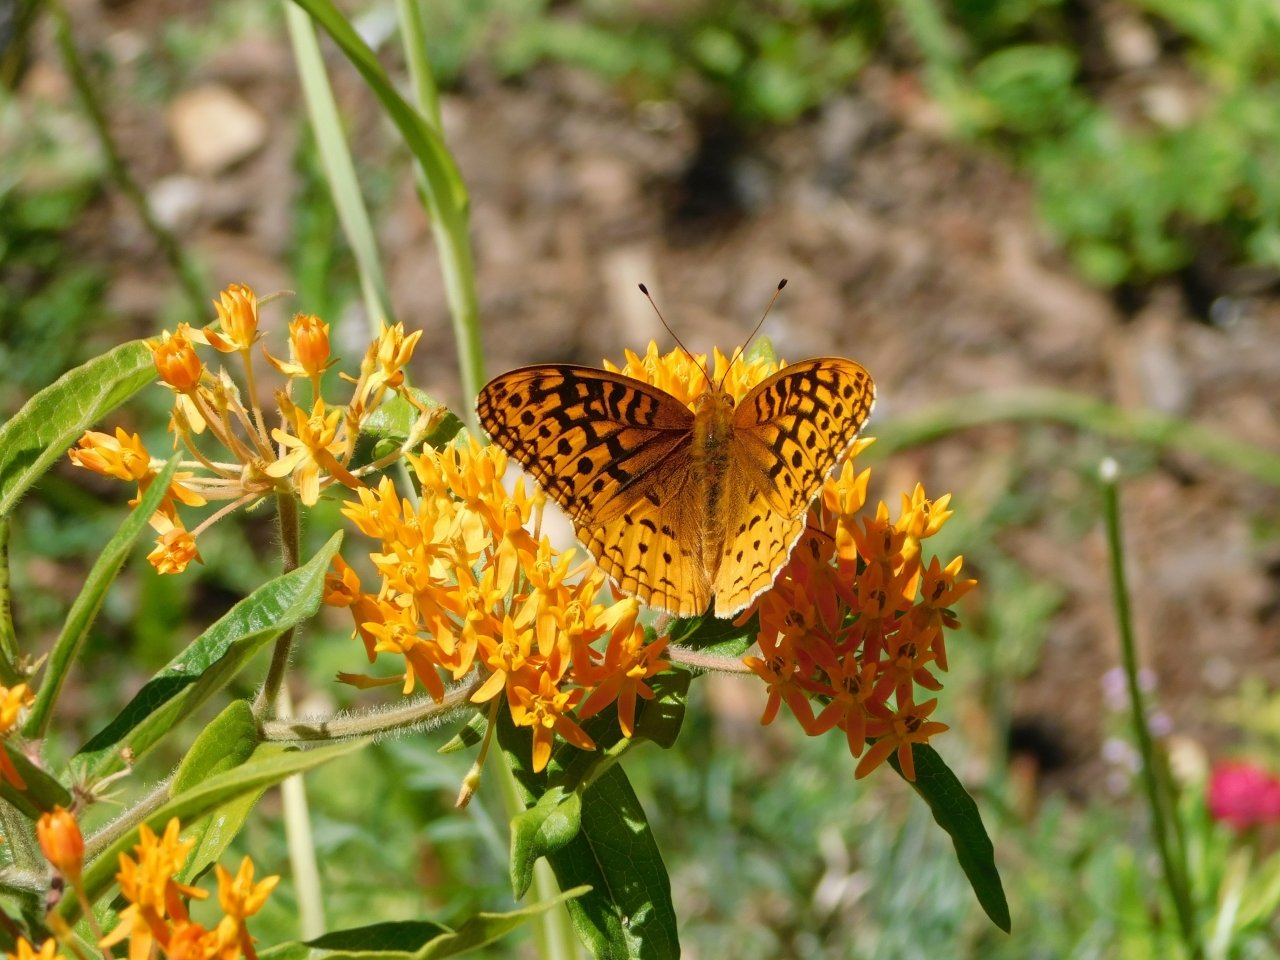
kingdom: Animalia
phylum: Arthropoda
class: Insecta
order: Lepidoptera
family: Nymphalidae
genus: Speyeria
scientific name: Speyeria cybele
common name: Great Spangled Fritillary
